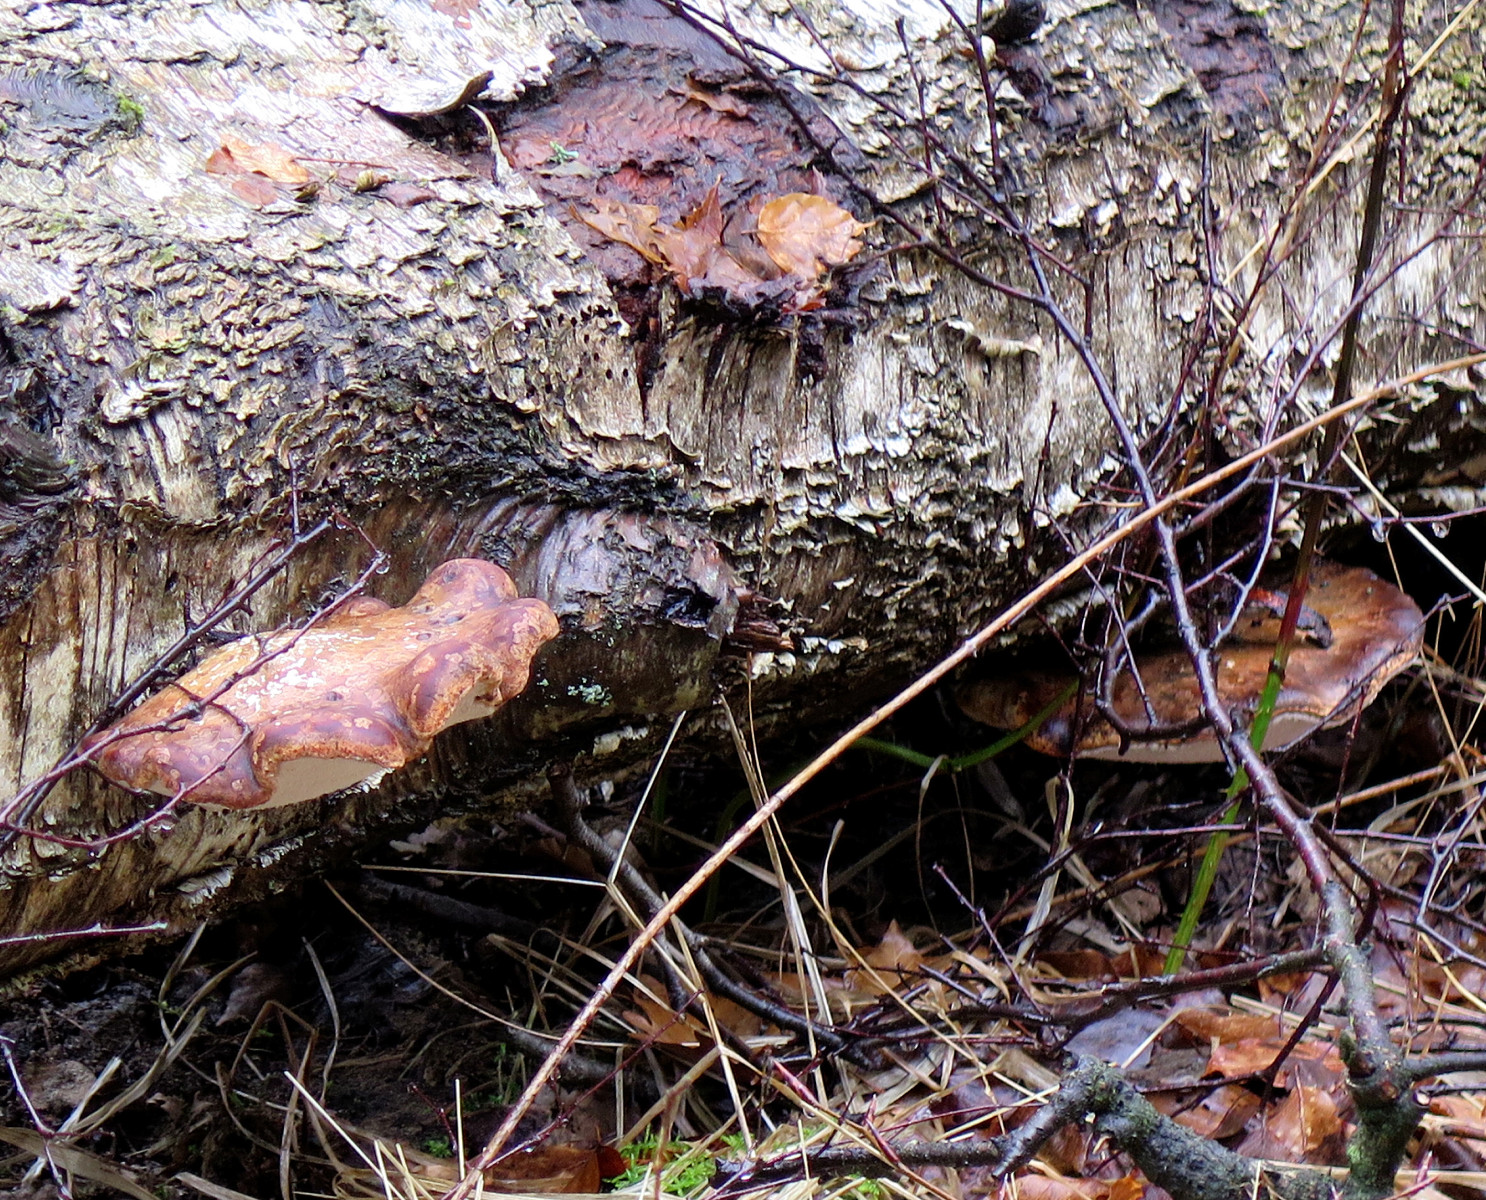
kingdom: Fungi
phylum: Basidiomycota
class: Agaricomycetes
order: Polyporales
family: Fomitopsidaceae
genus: Fomitopsis
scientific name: Fomitopsis betulina
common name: birkeporesvamp
